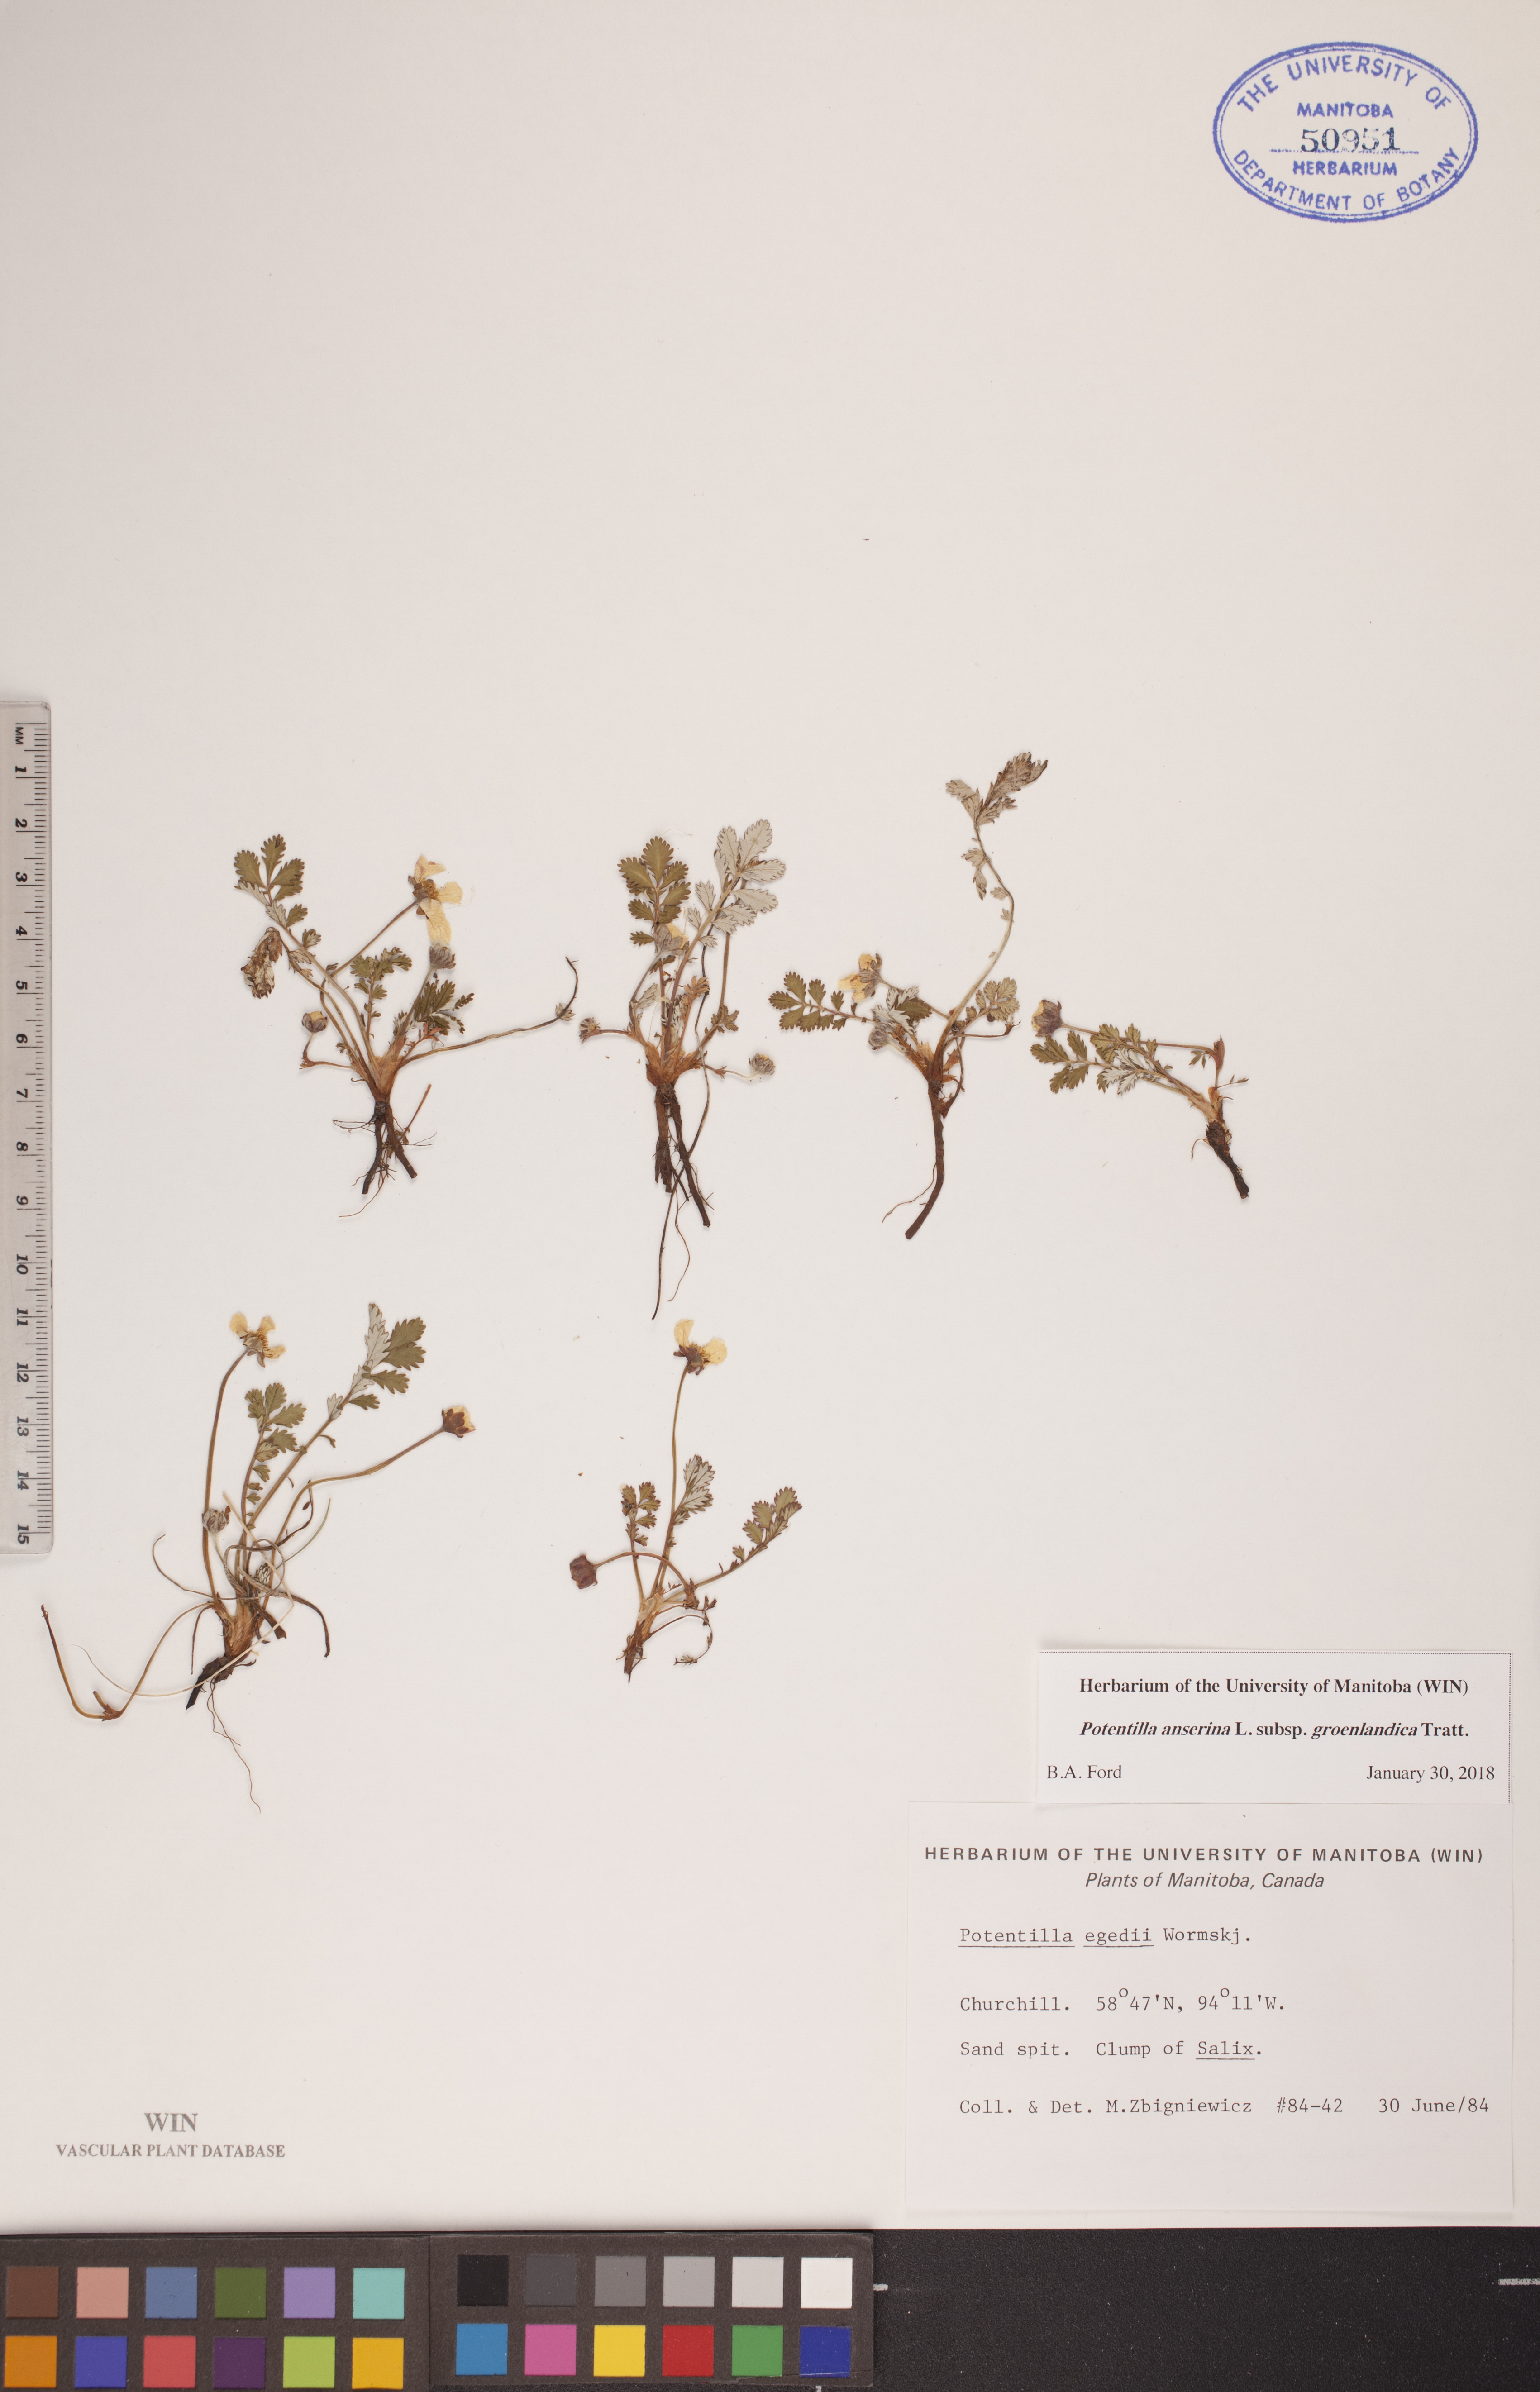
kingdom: Plantae
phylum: Tracheophyta
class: Magnoliopsida
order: Rosales
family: Rosaceae
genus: Argentina
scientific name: Argentina anserina
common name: Common silverweed
